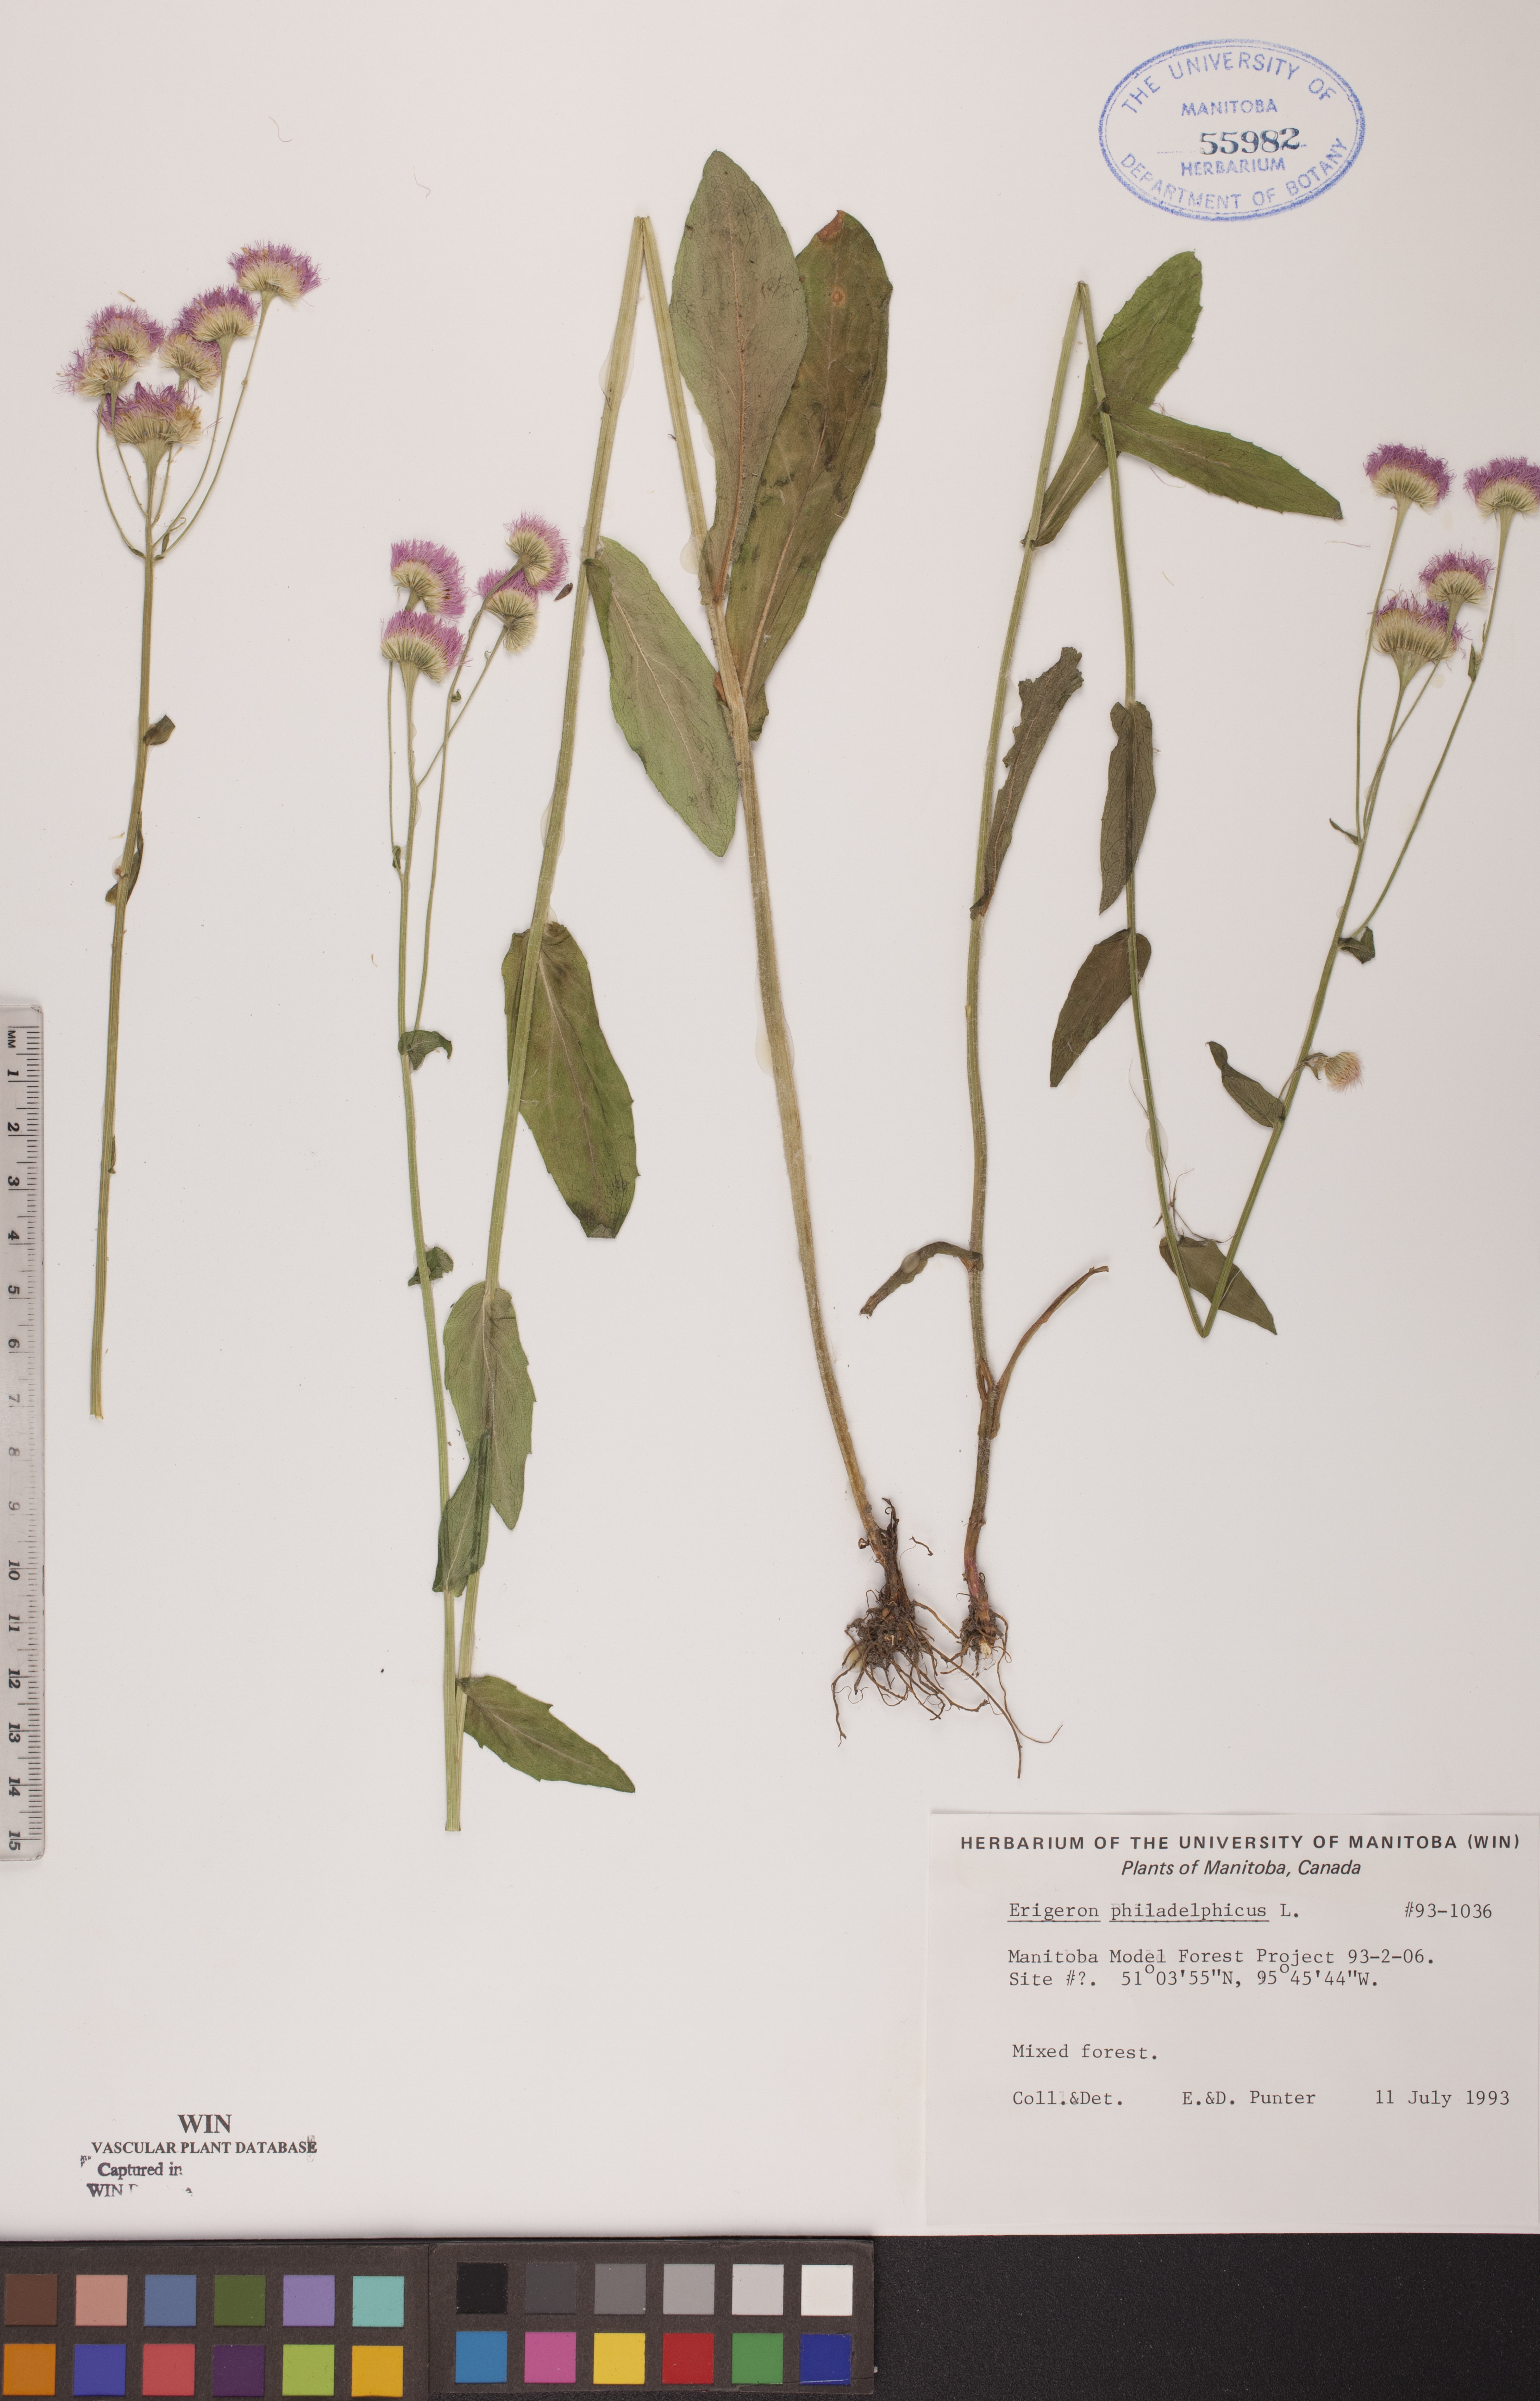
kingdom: Plantae
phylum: Tracheophyta
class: Magnoliopsida
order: Asterales
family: Asteraceae
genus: Erigeron
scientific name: Erigeron philadelphicus
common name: Robin's-plantain
